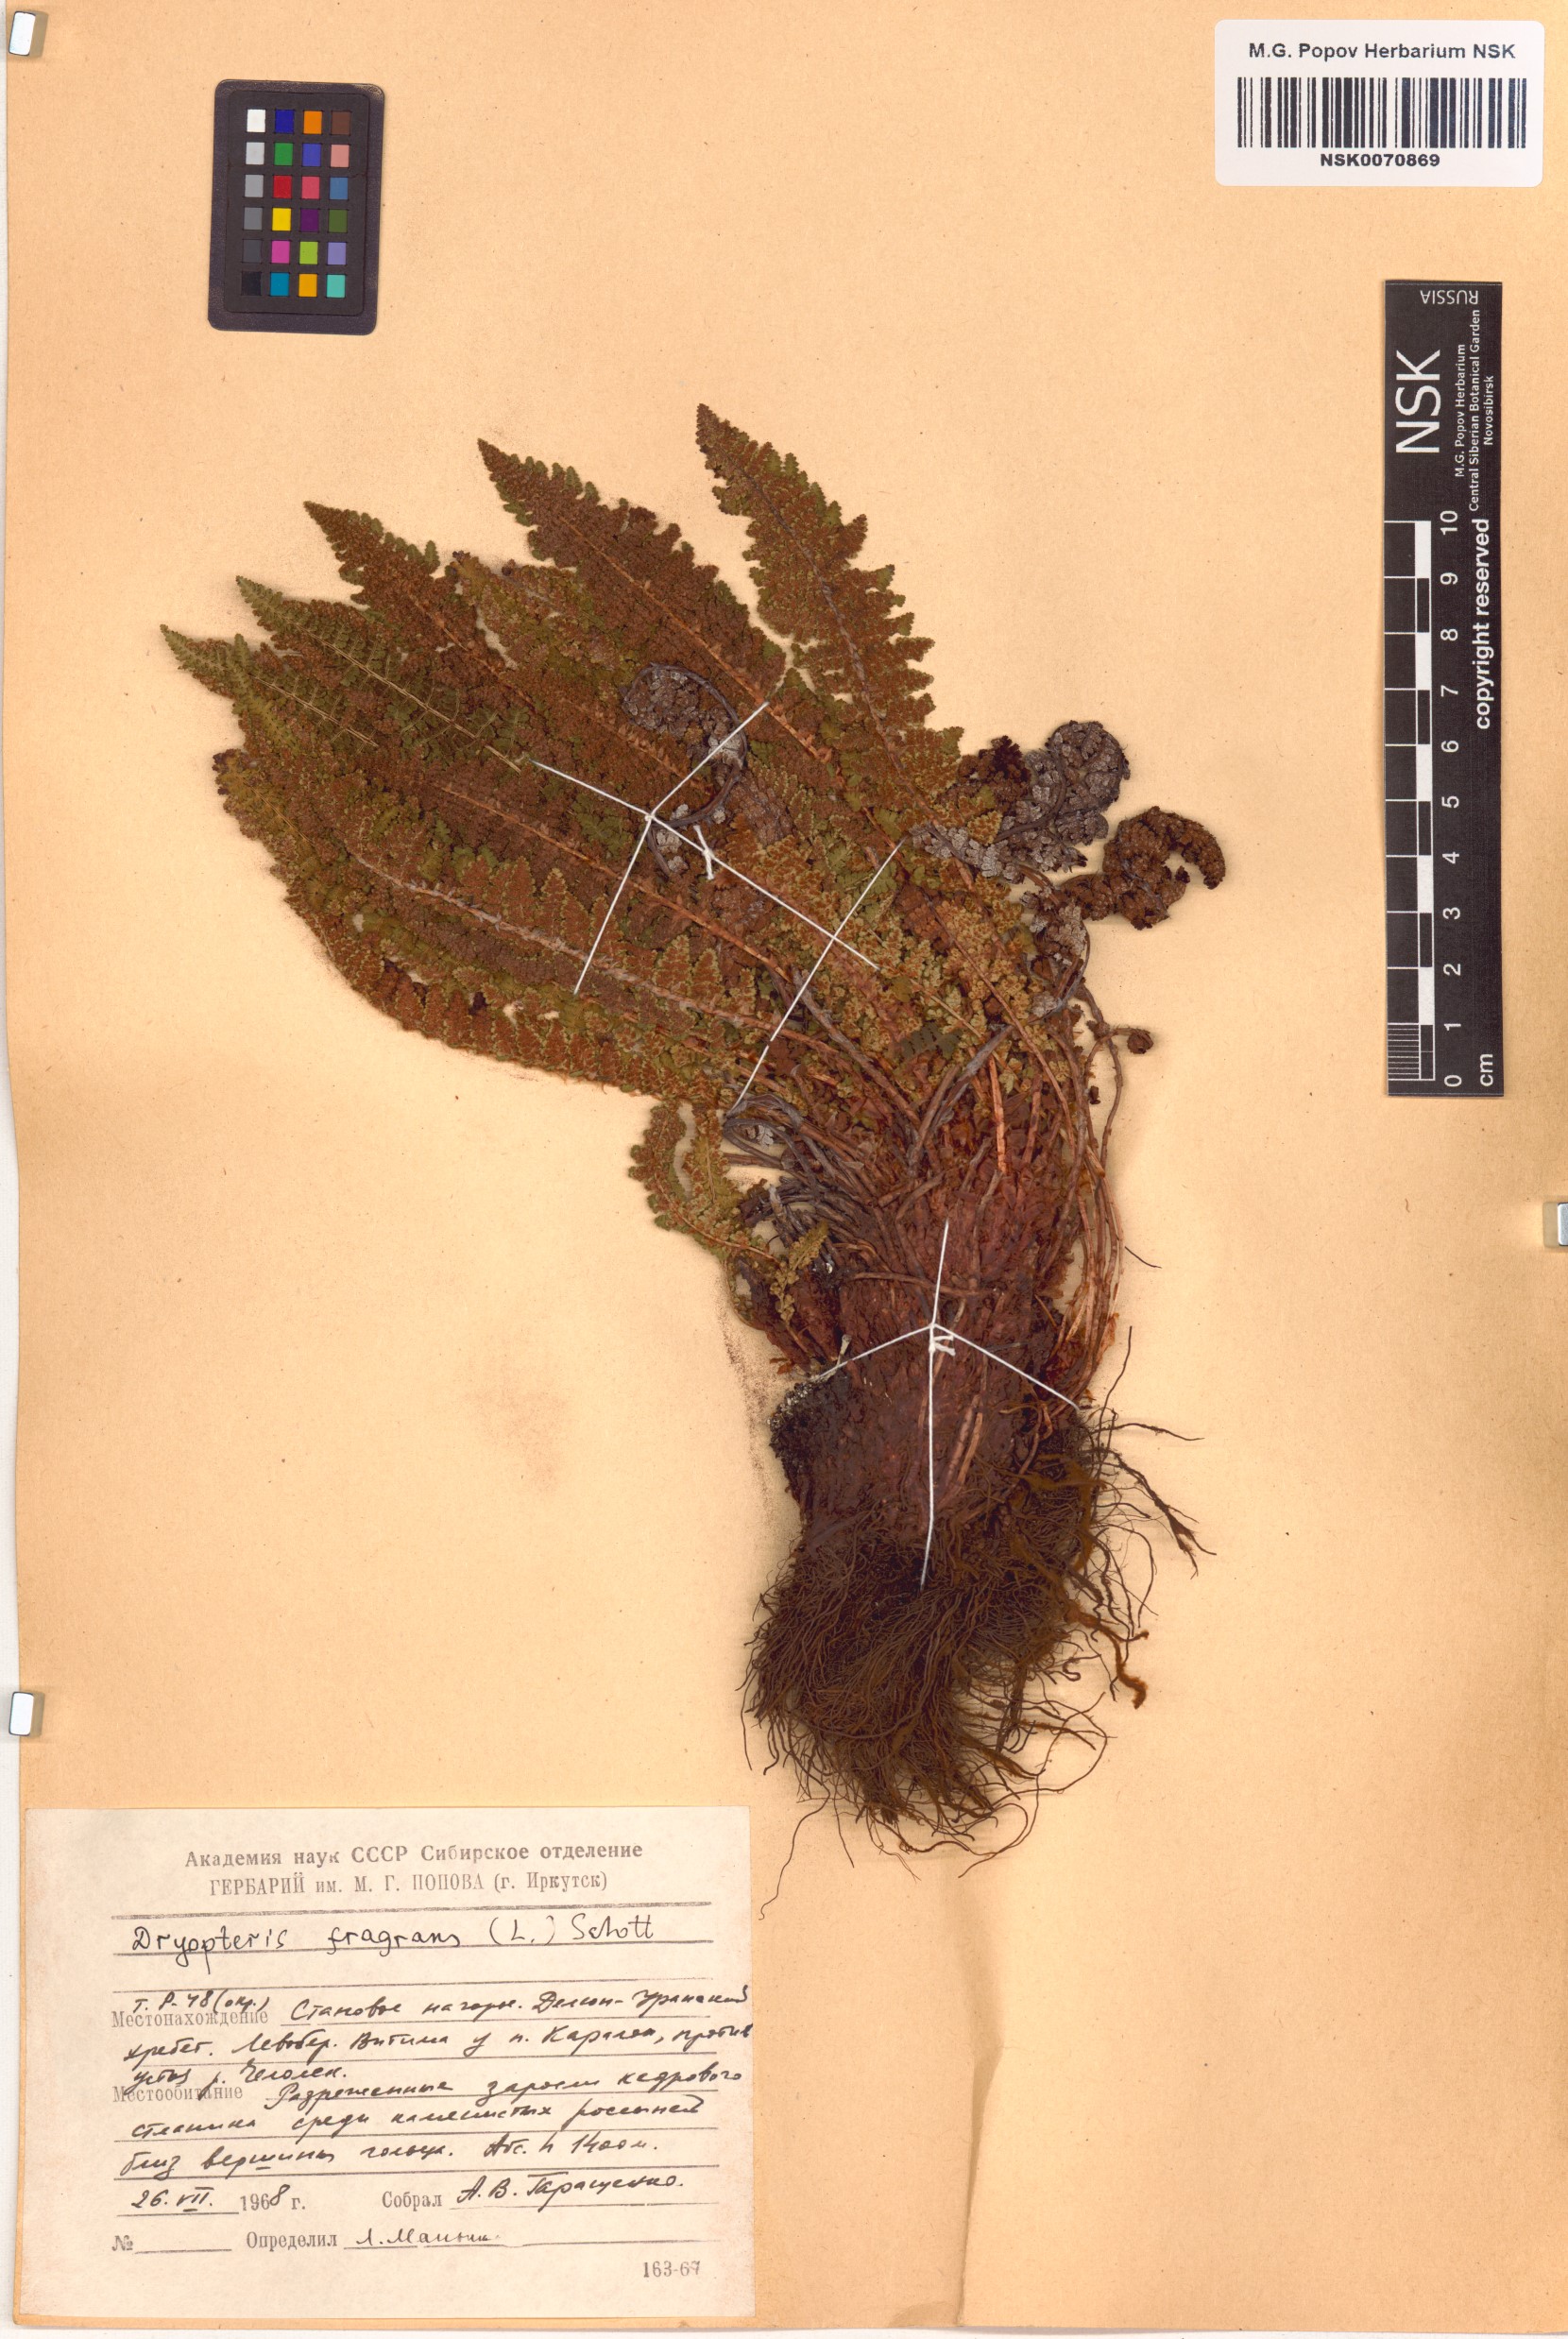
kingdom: Plantae
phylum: Tracheophyta
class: Polypodiopsida
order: Polypodiales
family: Dryopteridaceae
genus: Dryopteris
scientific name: Dryopteris fragrans
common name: Fragrant wood fern
